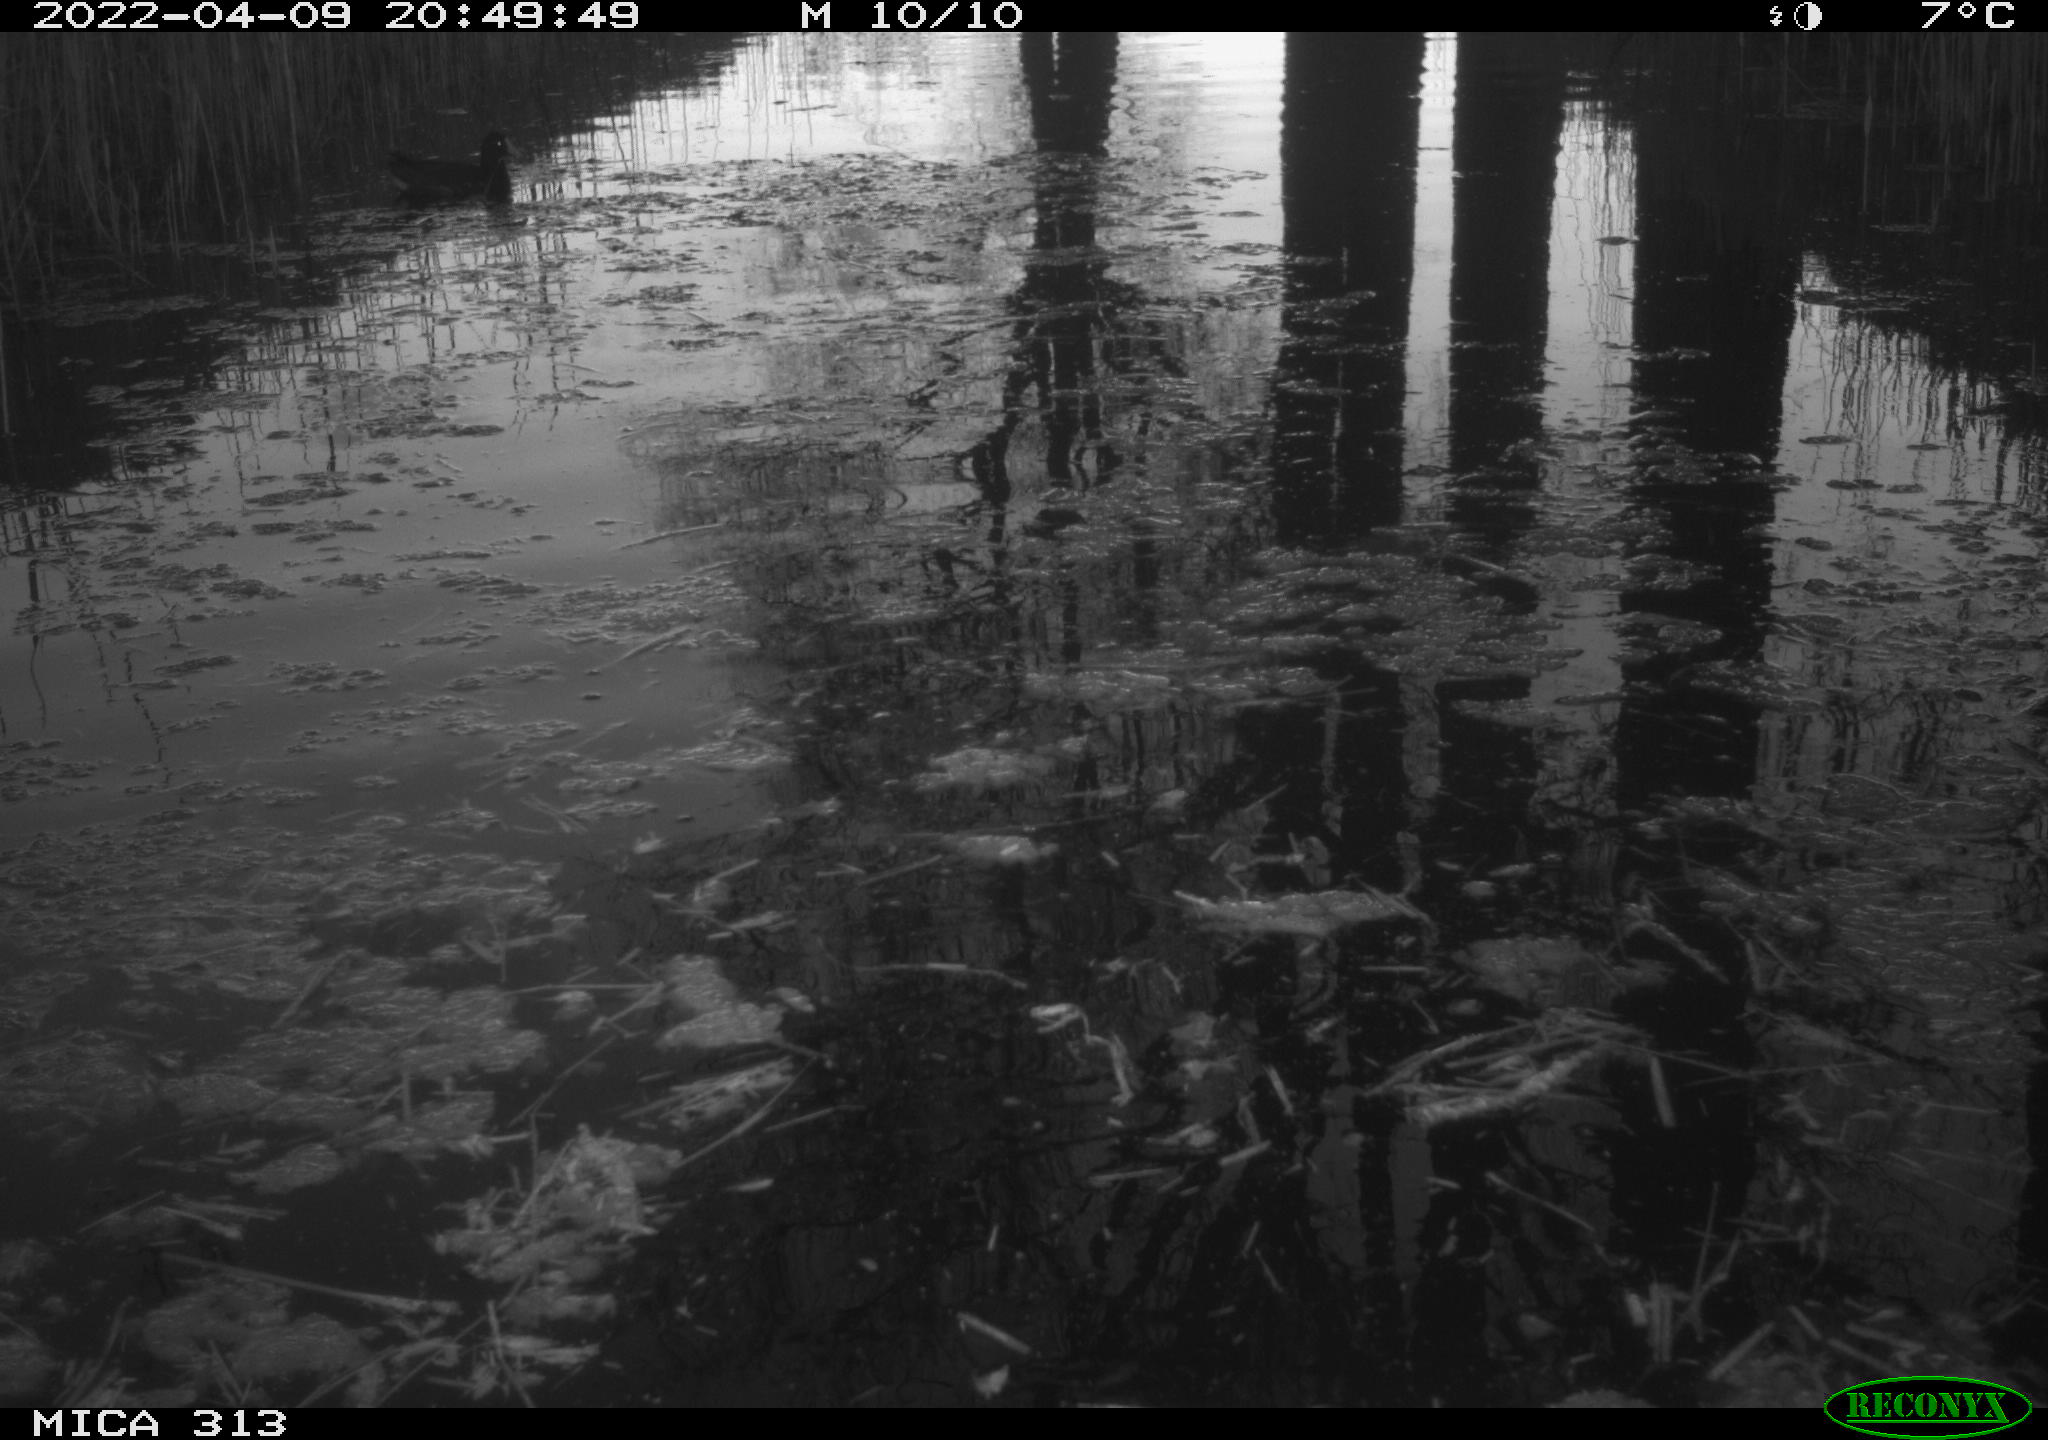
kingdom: Animalia
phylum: Chordata
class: Aves
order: Anseriformes
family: Anatidae
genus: Anas
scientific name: Anas platyrhynchos
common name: Mallard
